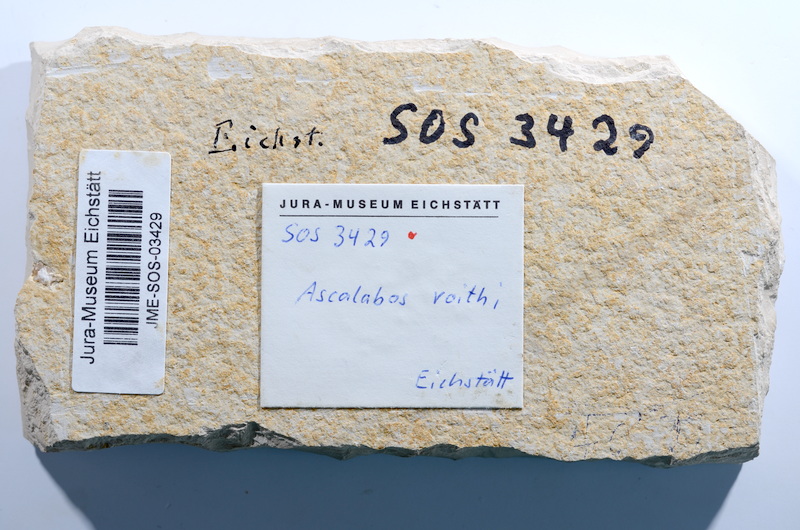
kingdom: Animalia
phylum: Chordata
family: Ascalaboidae
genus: Ascalabos
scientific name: Ascalabos voithii
